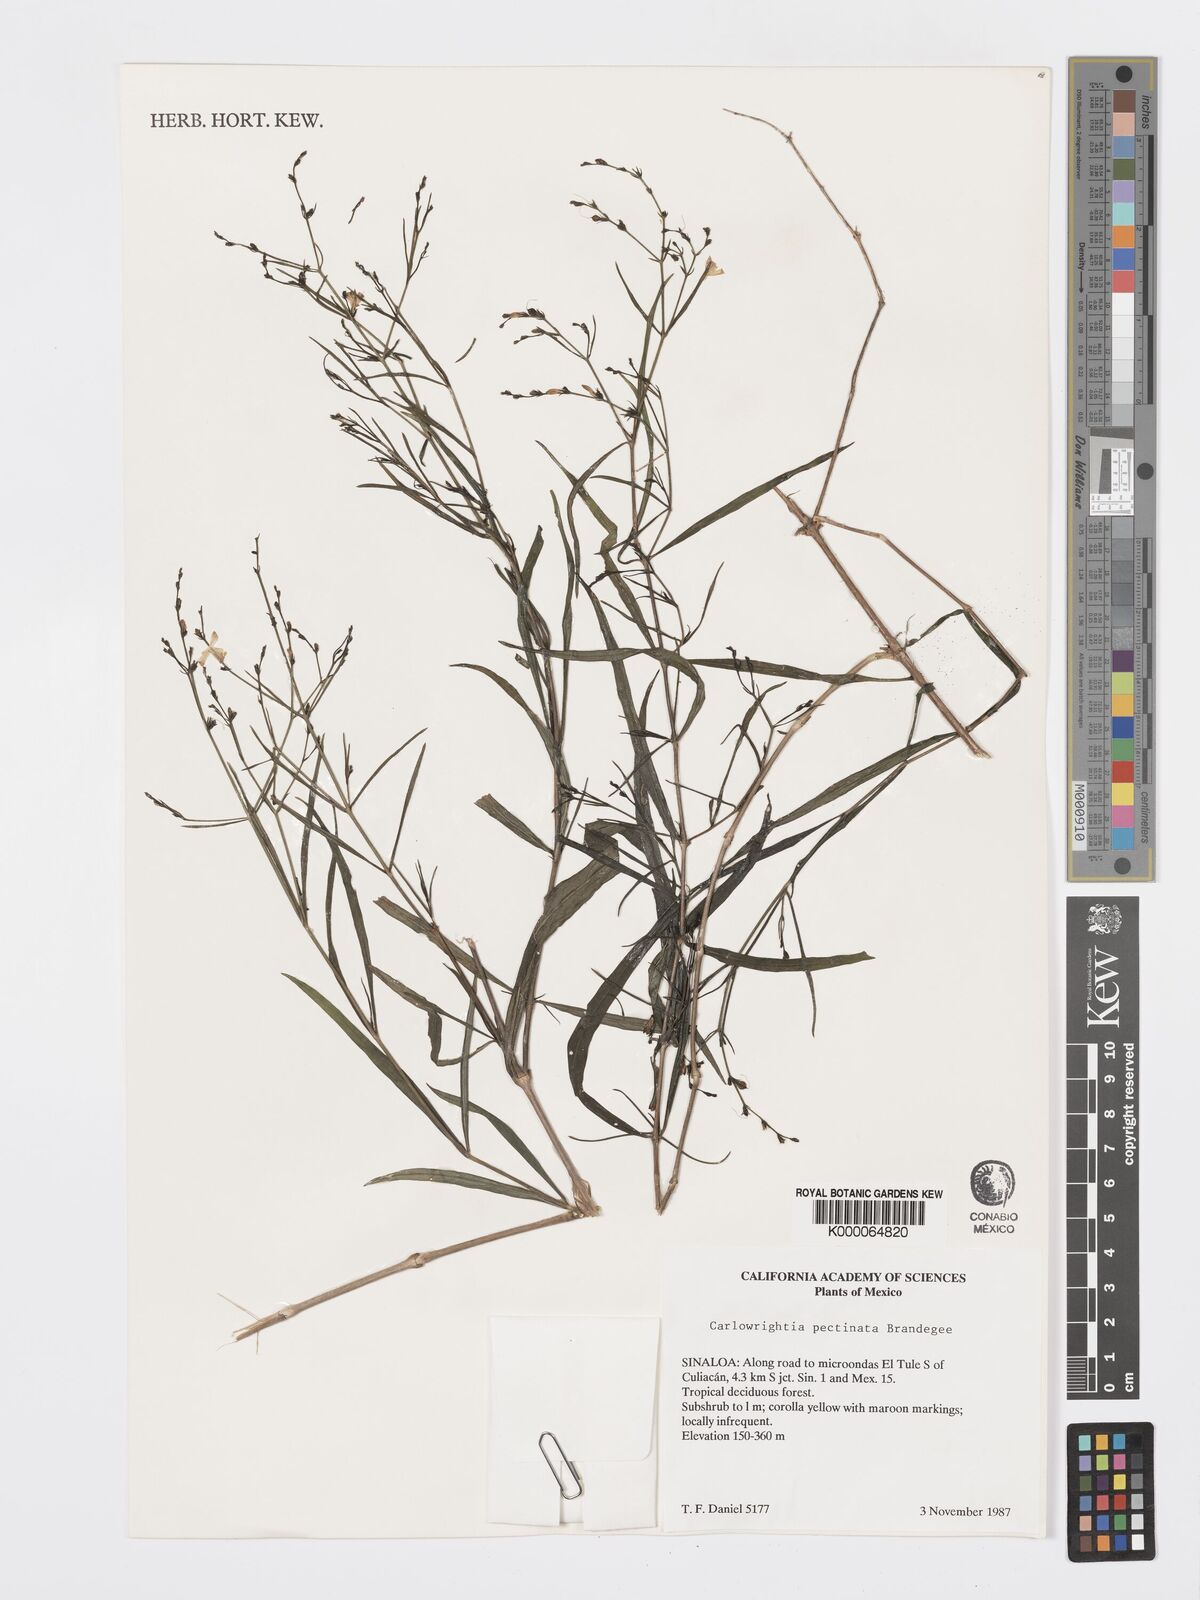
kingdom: Plantae
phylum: Tracheophyta
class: Magnoliopsida
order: Lamiales
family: Acanthaceae
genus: Carlowrightia
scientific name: Carlowrightia pectinata
